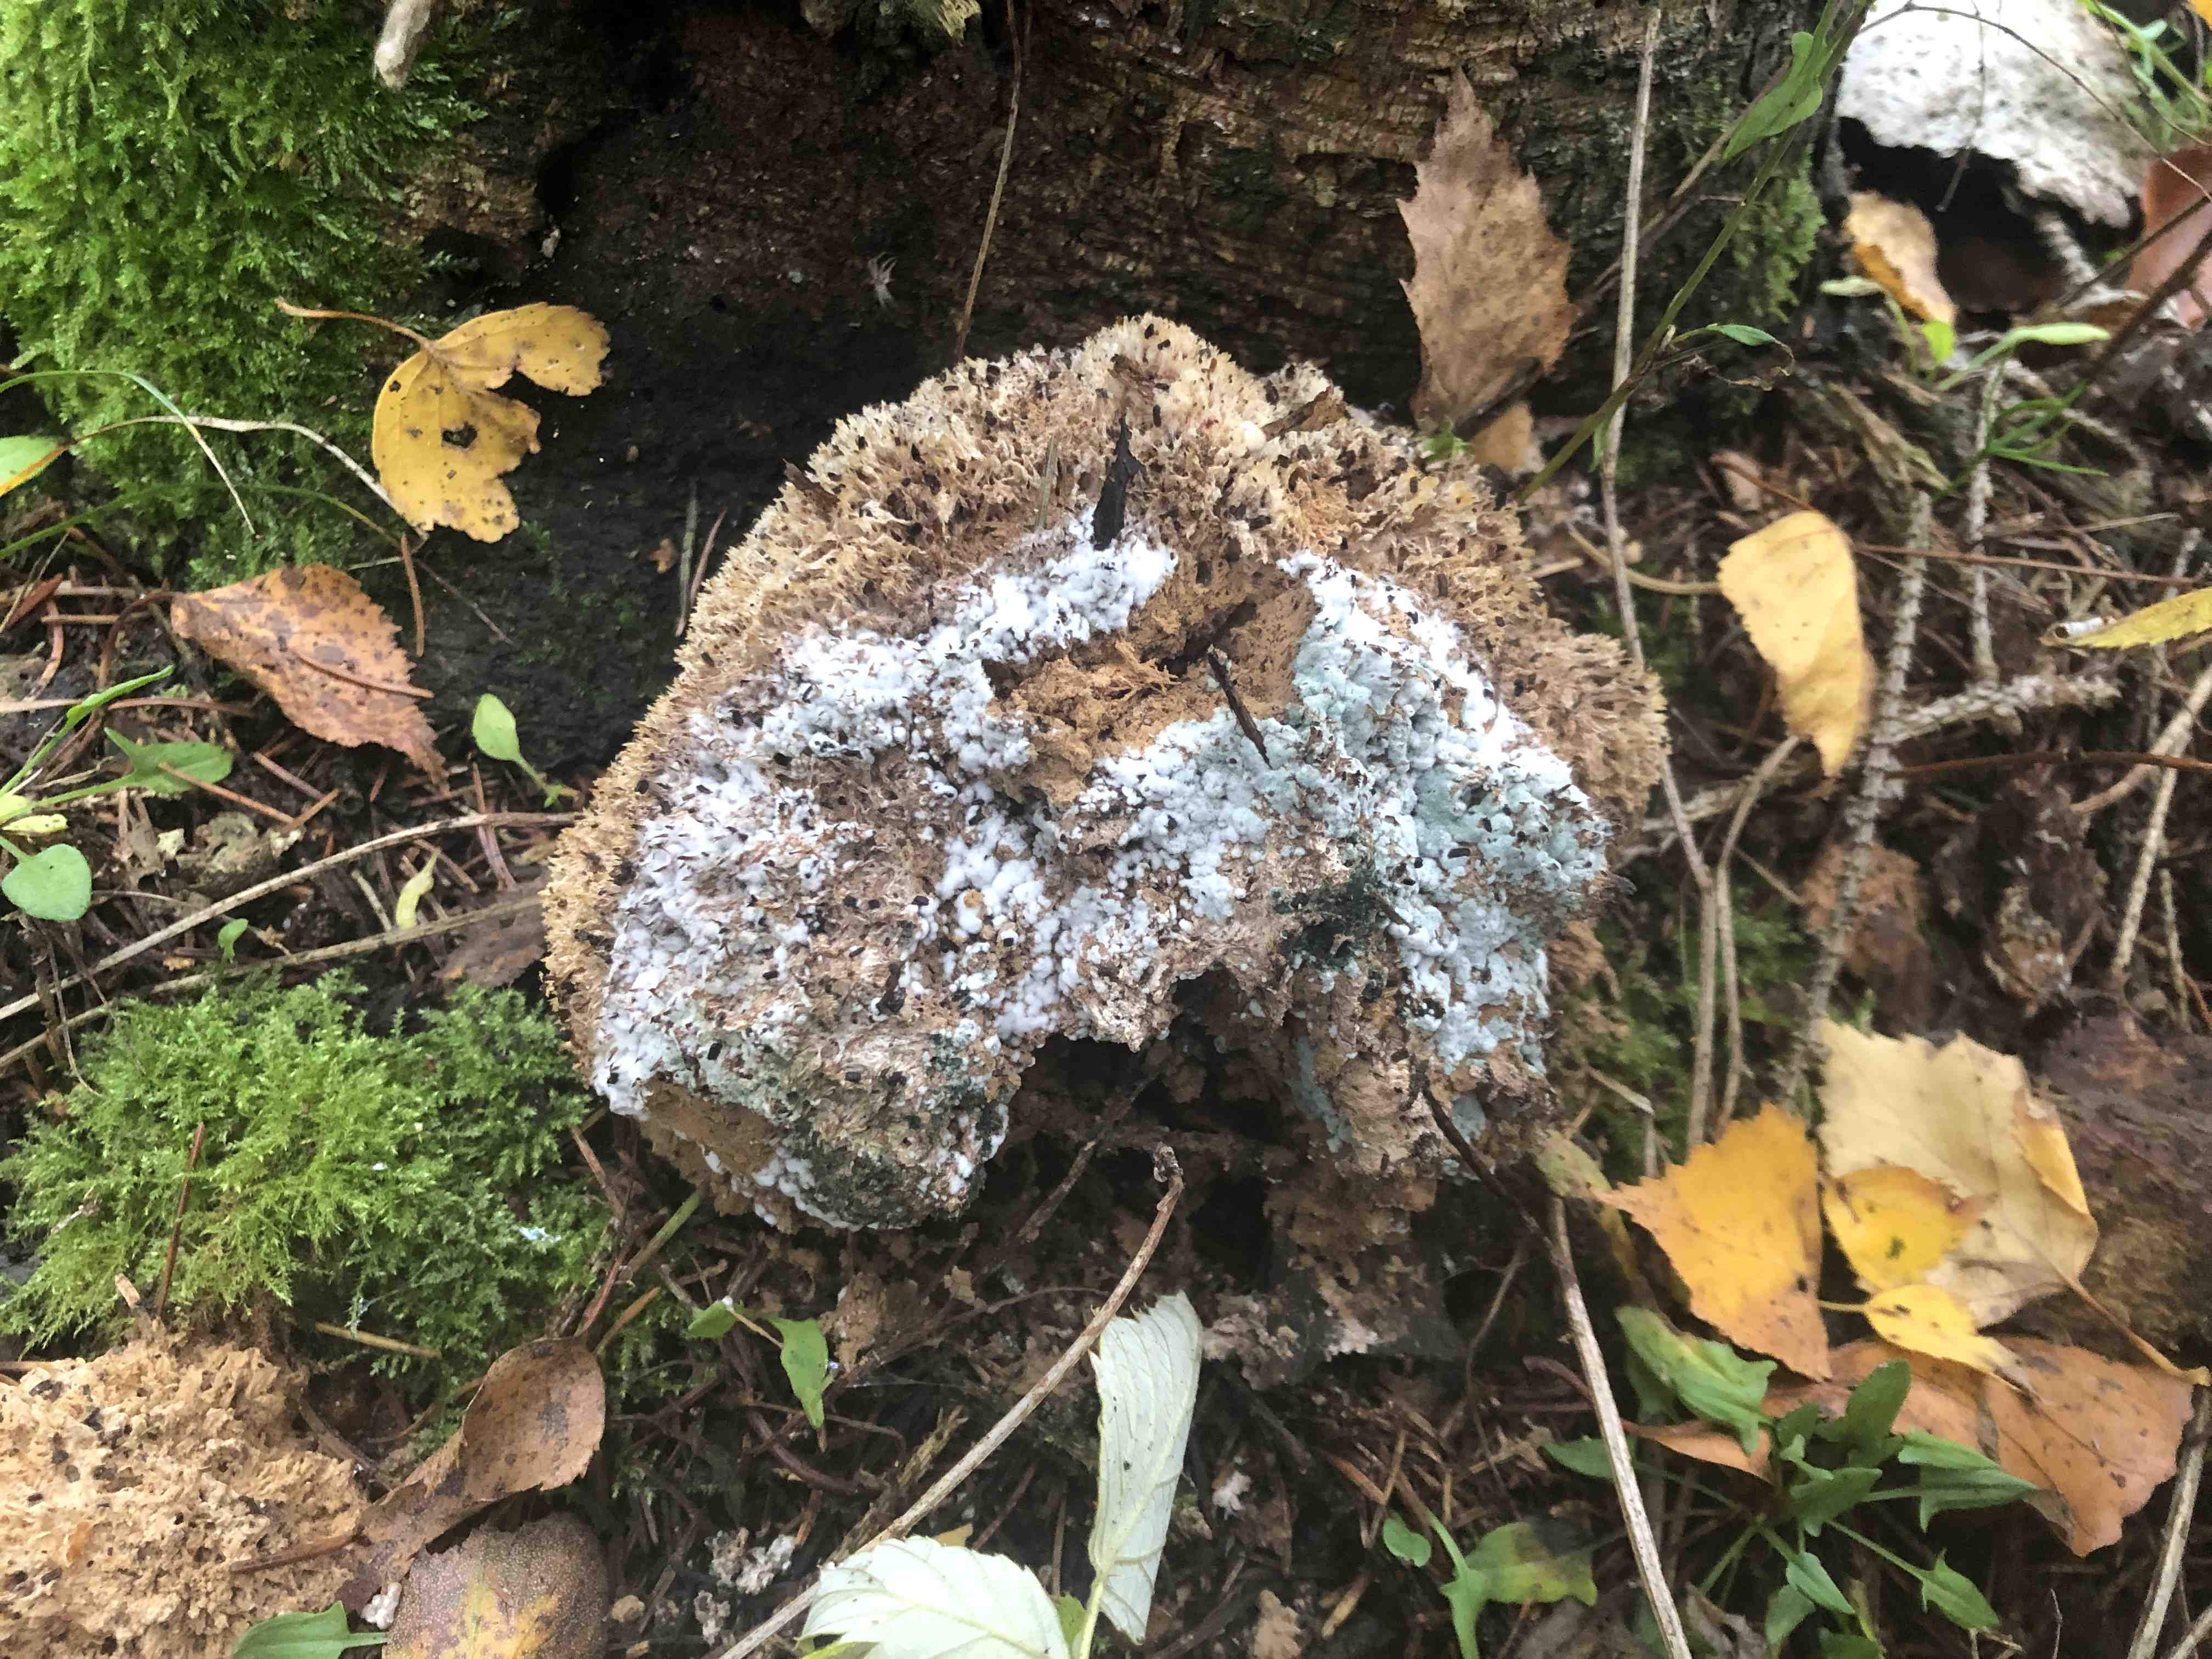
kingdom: Fungi
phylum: Basidiomycota
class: Agaricomycetes
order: Polyporales
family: Dacryobolaceae
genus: Postia
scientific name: Postia ptychogaster
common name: støvende kødporesvamp
